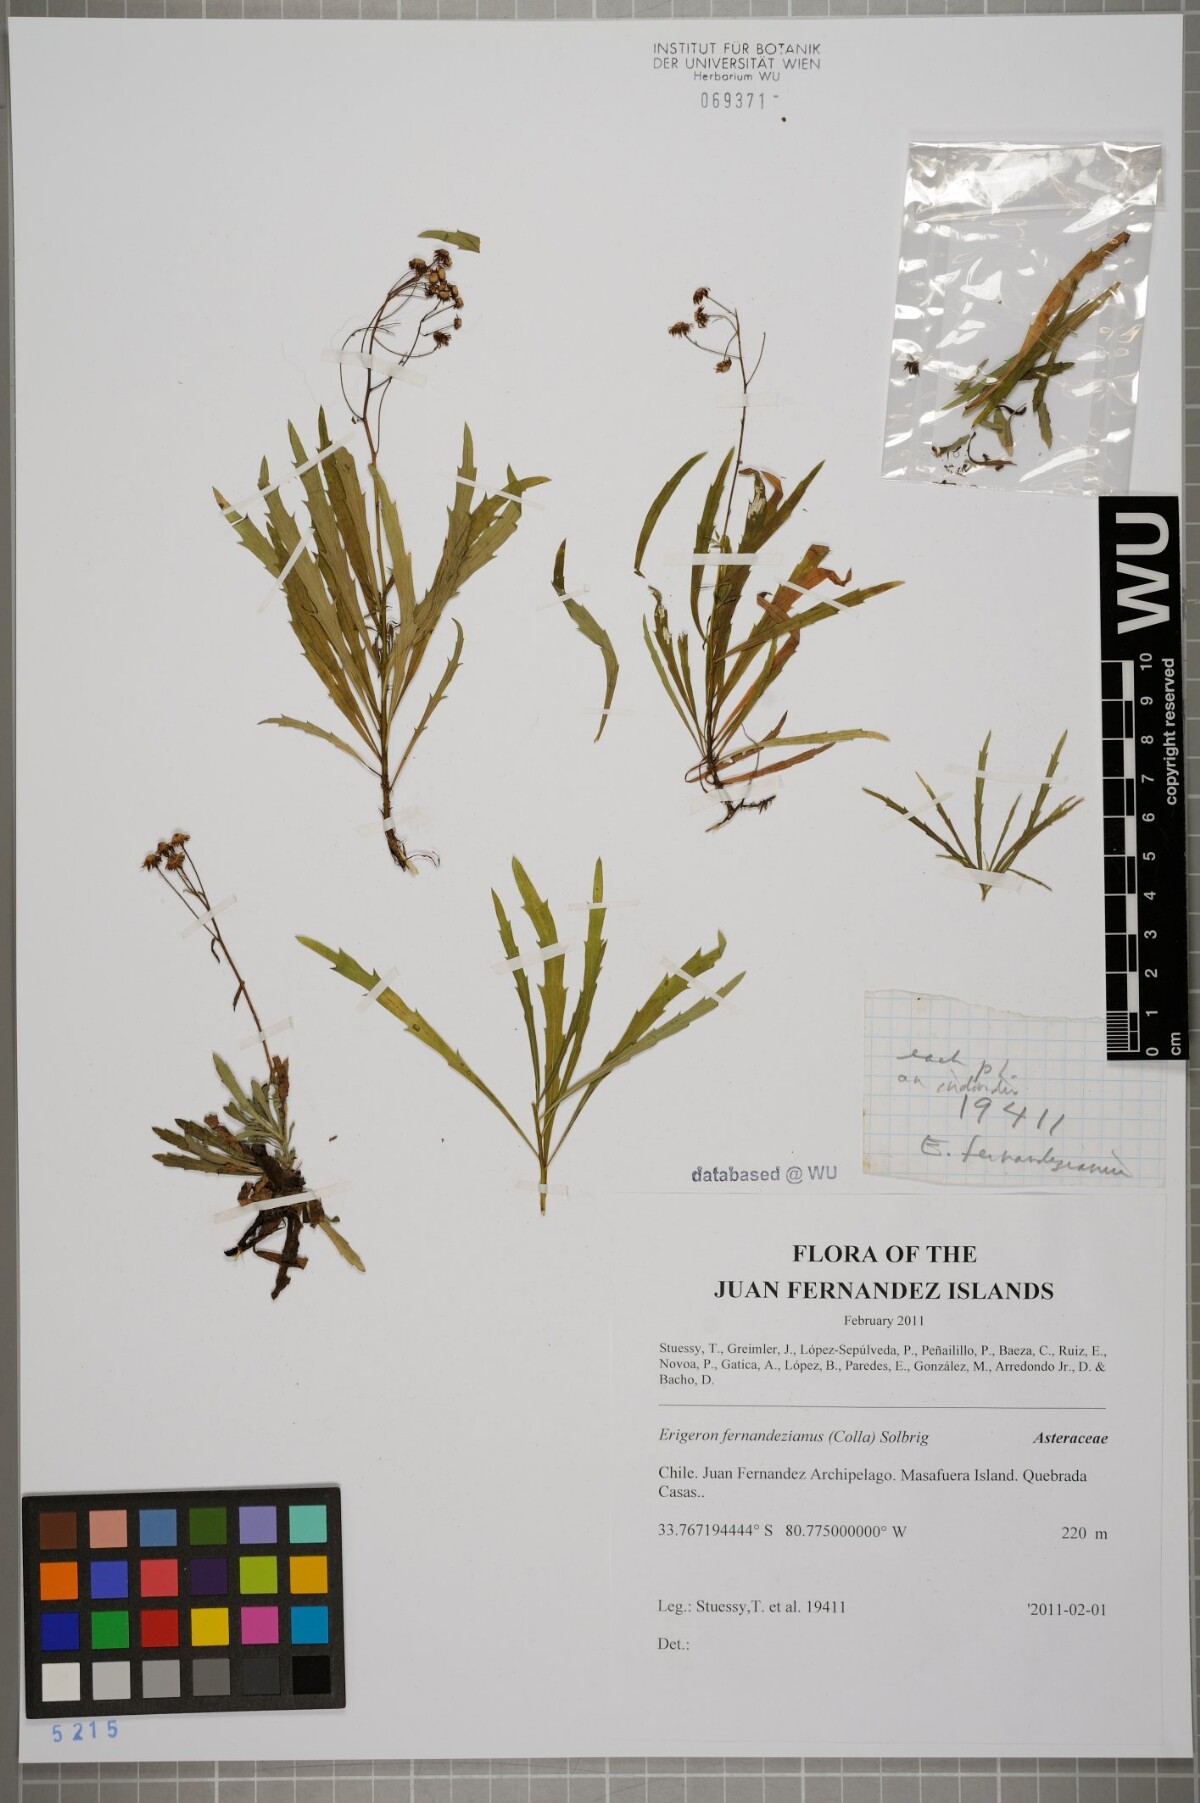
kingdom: Plantae
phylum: Tracheophyta
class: Magnoliopsida
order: Asterales
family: Asteraceae
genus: Erigeron
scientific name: Erigeron fernandezianus
